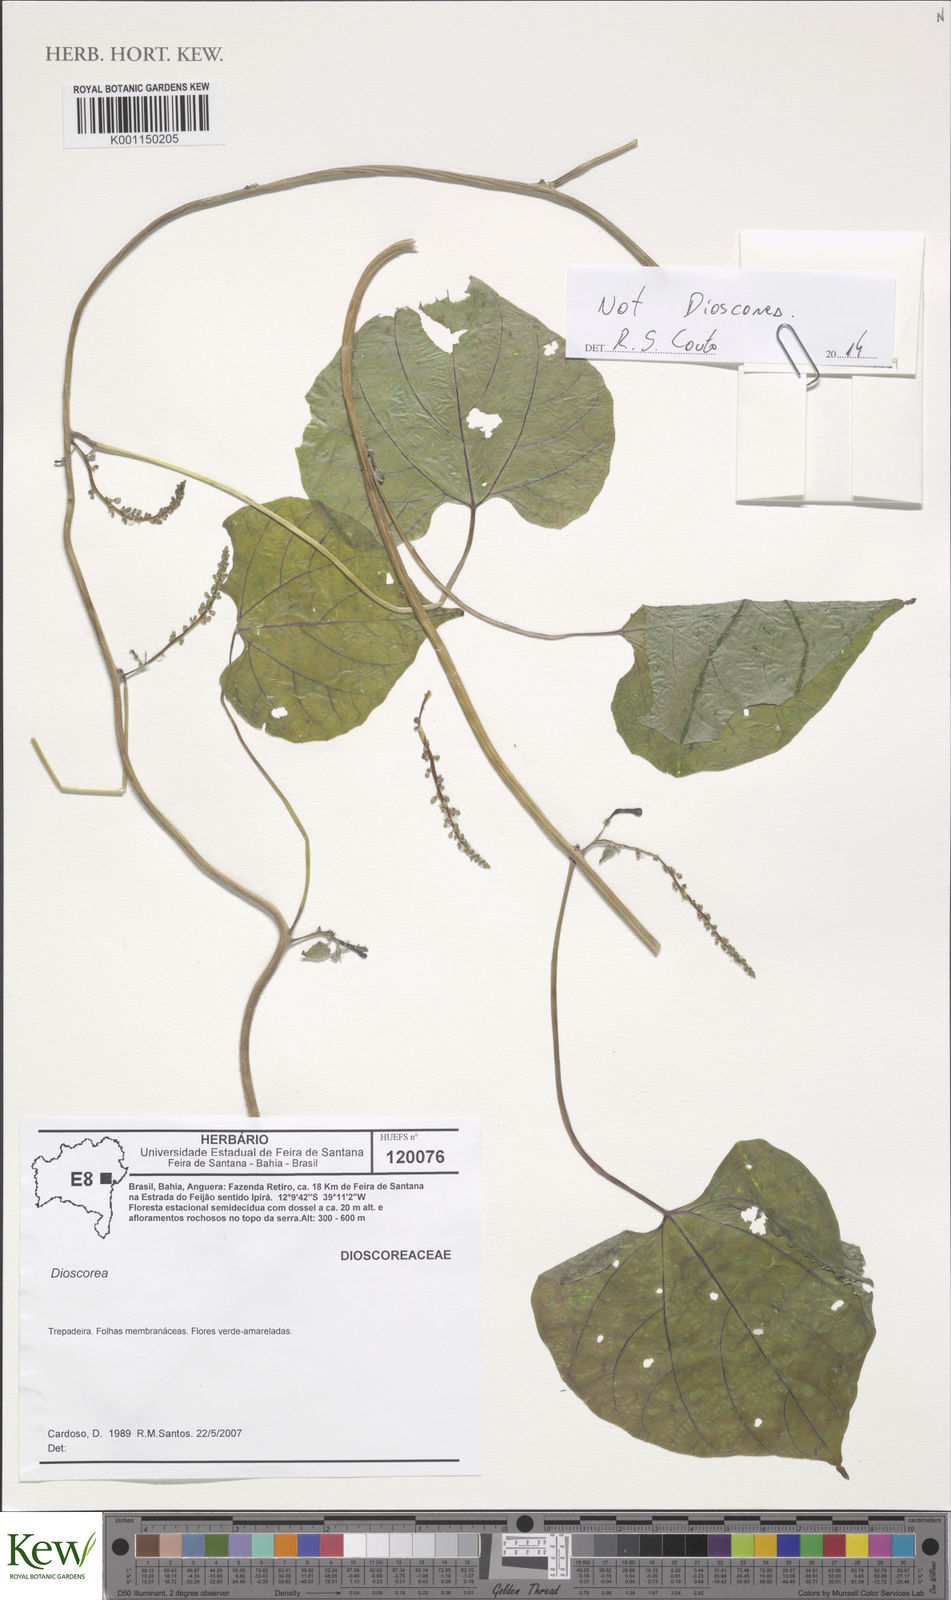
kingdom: Plantae
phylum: Tracheophyta
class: Magnoliopsida
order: Malpighiales
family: Euphorbiaceae
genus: Romanoa
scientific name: Romanoa tamnoides
